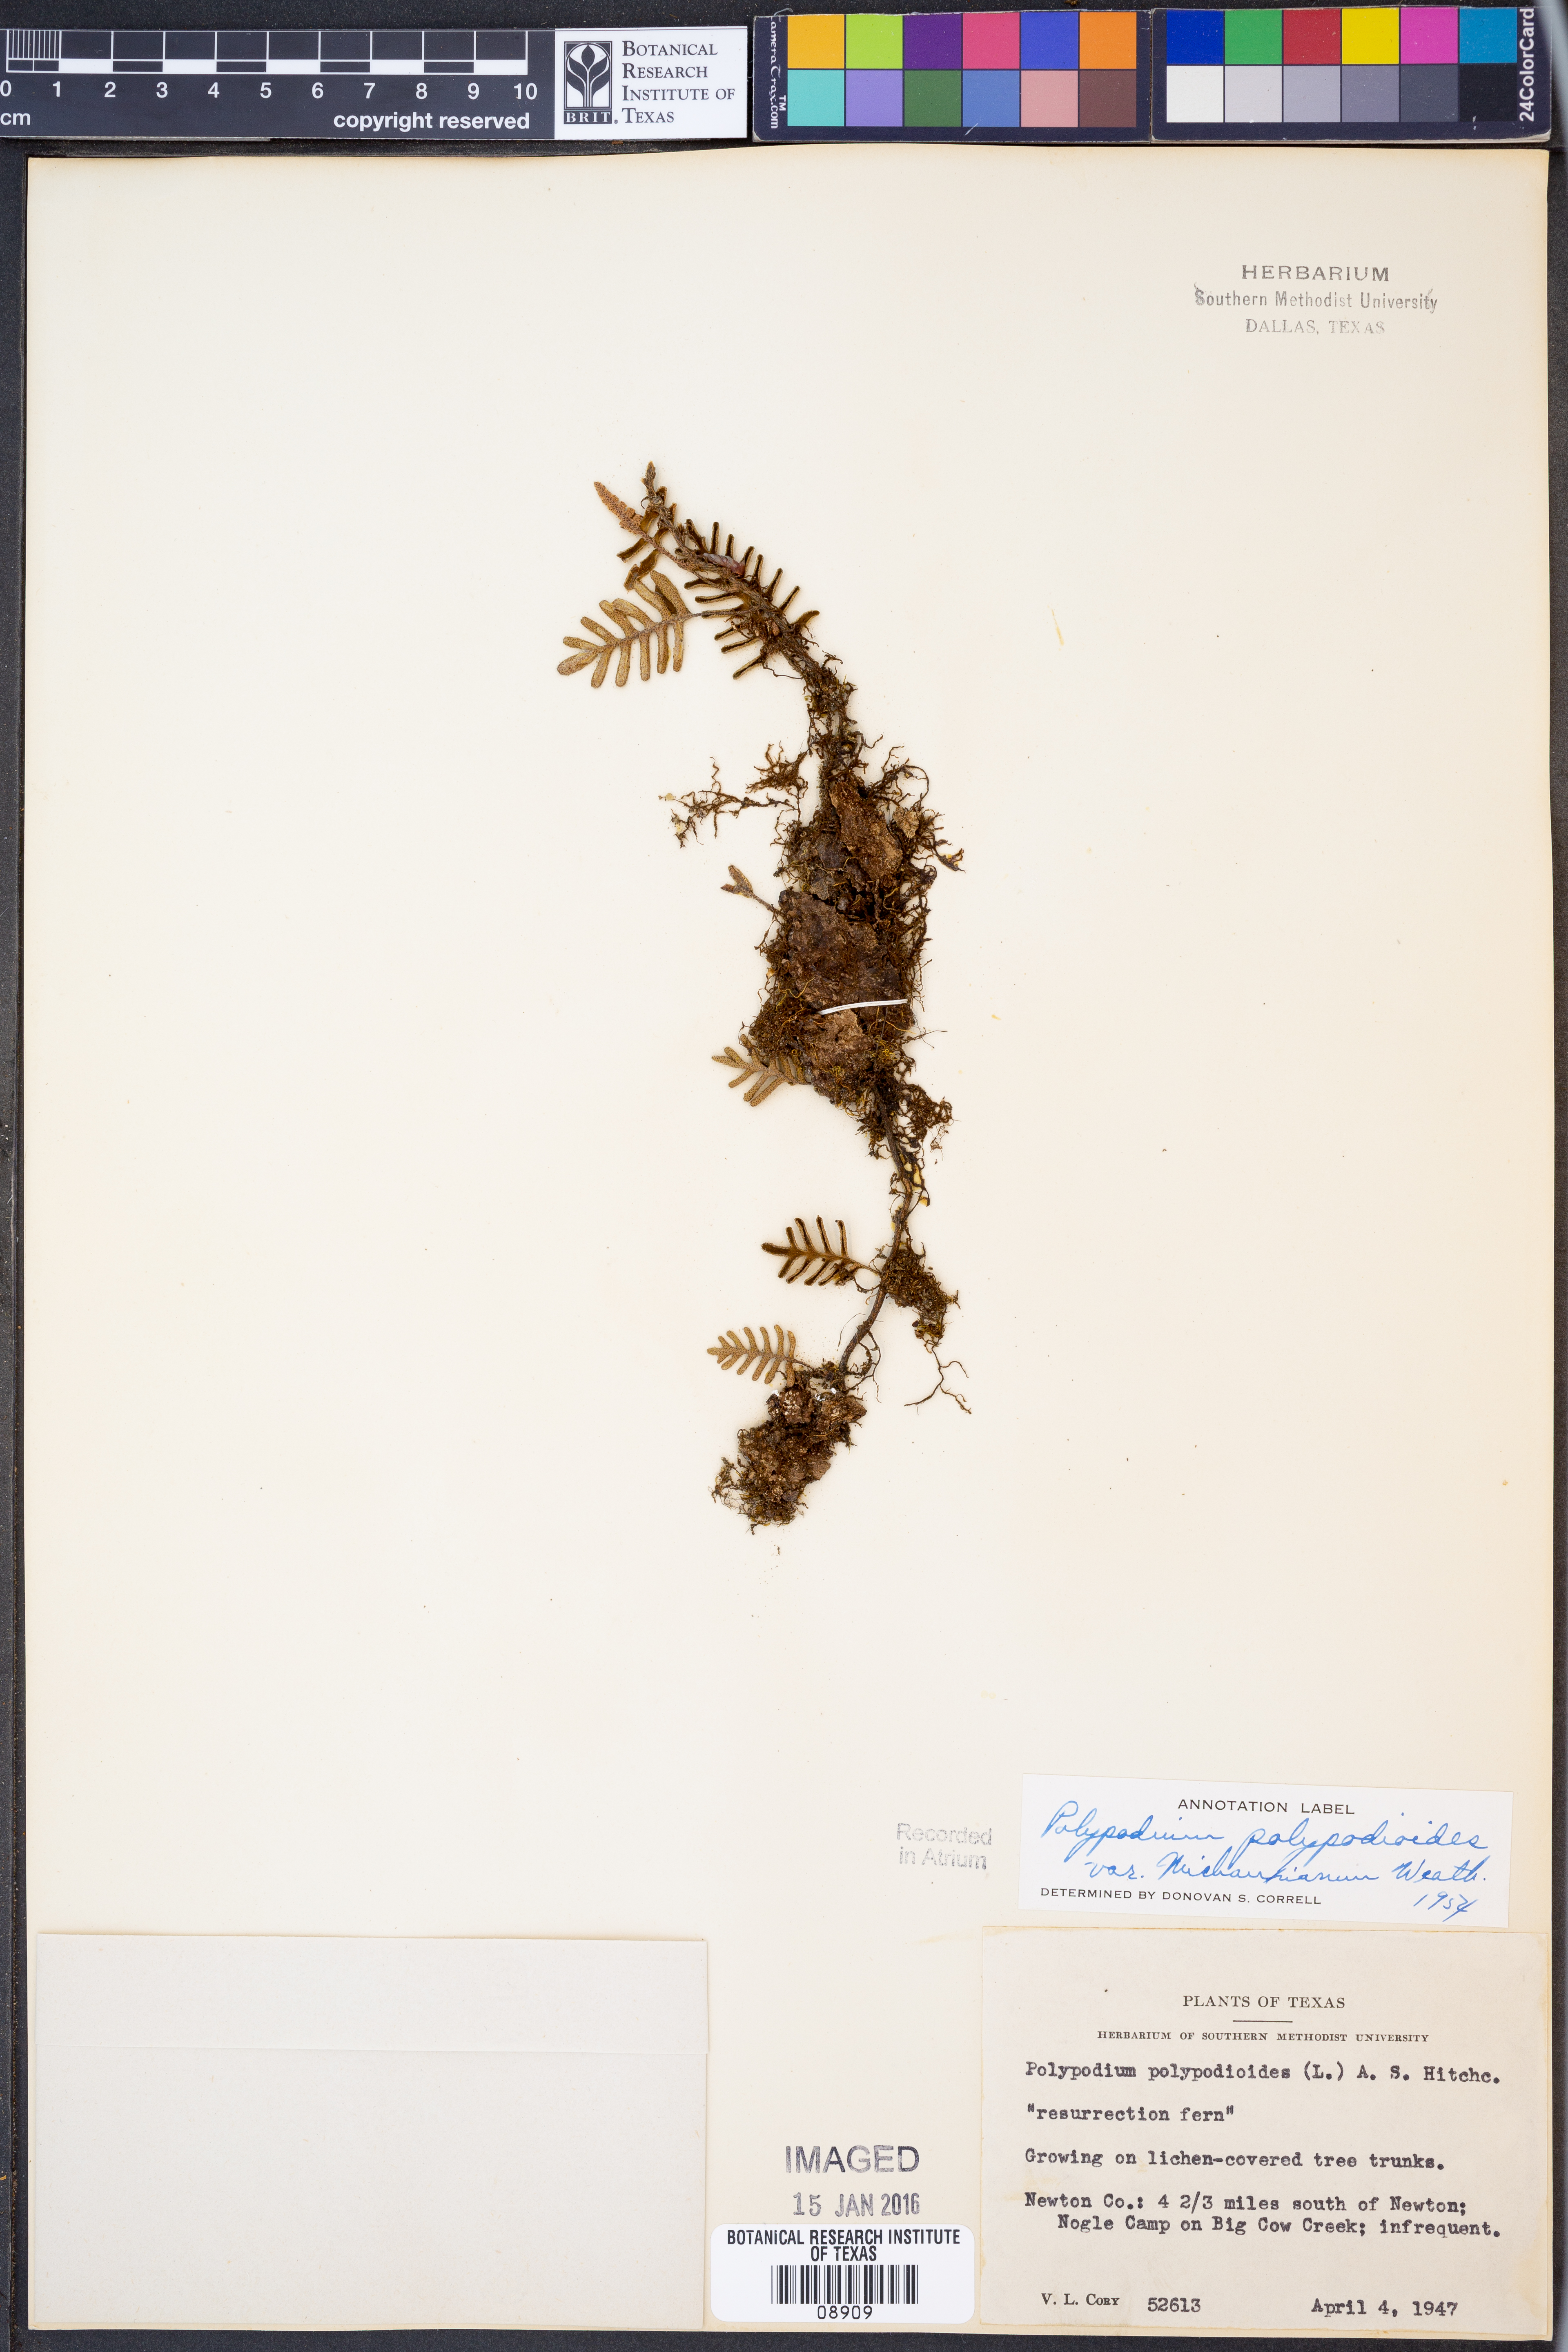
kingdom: Plantae
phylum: Tracheophyta
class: Polypodiopsida
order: Polypodiales
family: Polypodiaceae
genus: Pleopeltis
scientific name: Pleopeltis michauxiana
